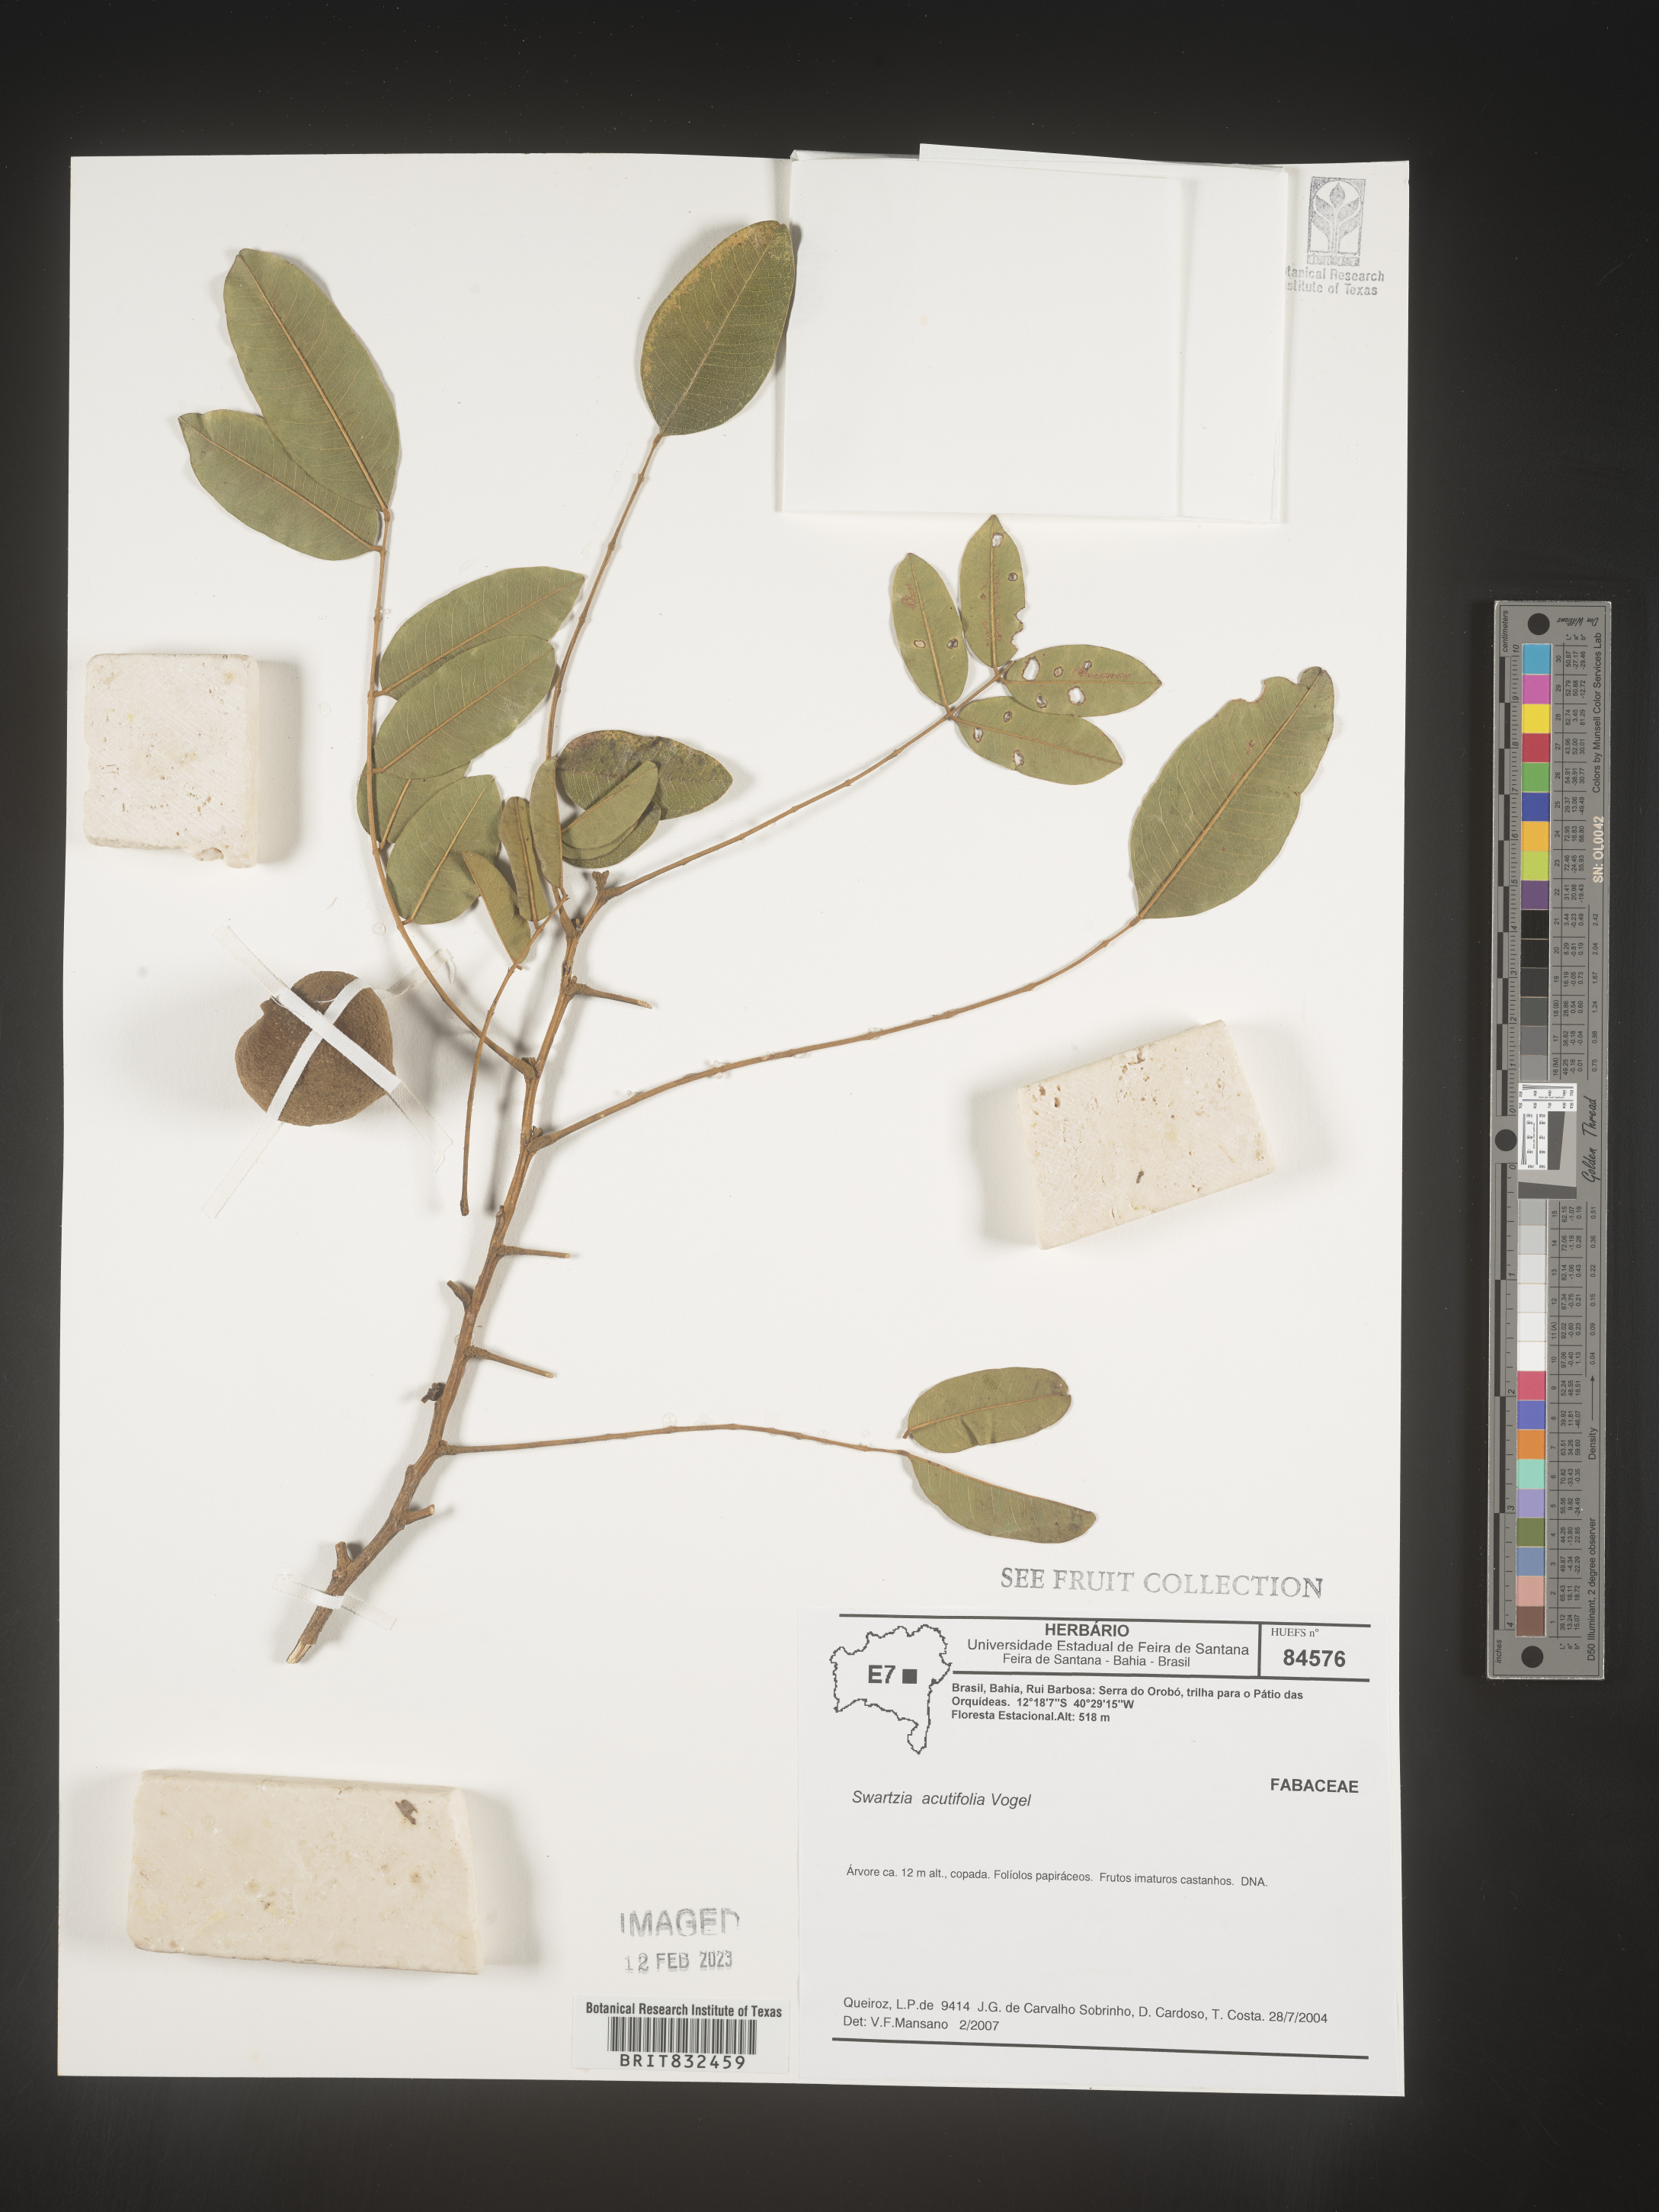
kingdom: Plantae
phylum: Tracheophyta
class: Magnoliopsida
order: Fabales
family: Fabaceae
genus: Swartzia
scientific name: Swartzia
